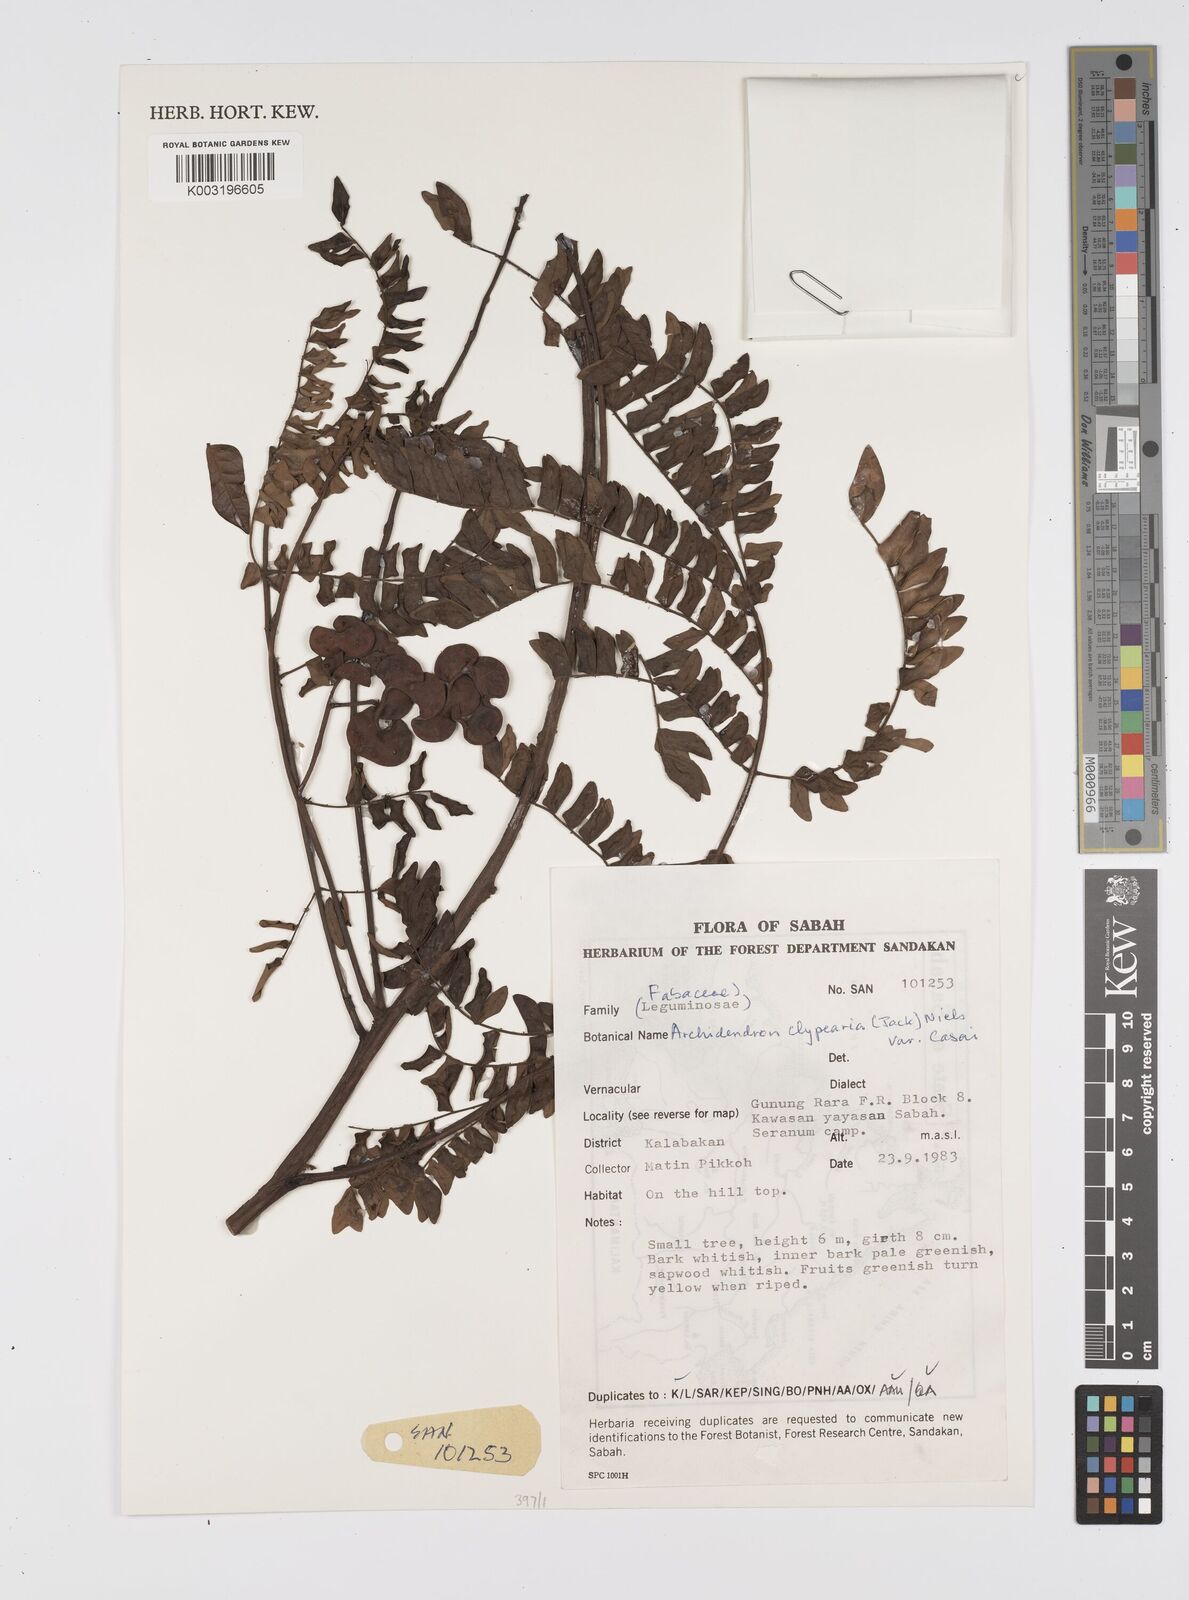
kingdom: Plantae
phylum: Tracheophyta
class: Magnoliopsida
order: Fabales
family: Fabaceae
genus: Archidendron
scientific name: Archidendron clypearia
